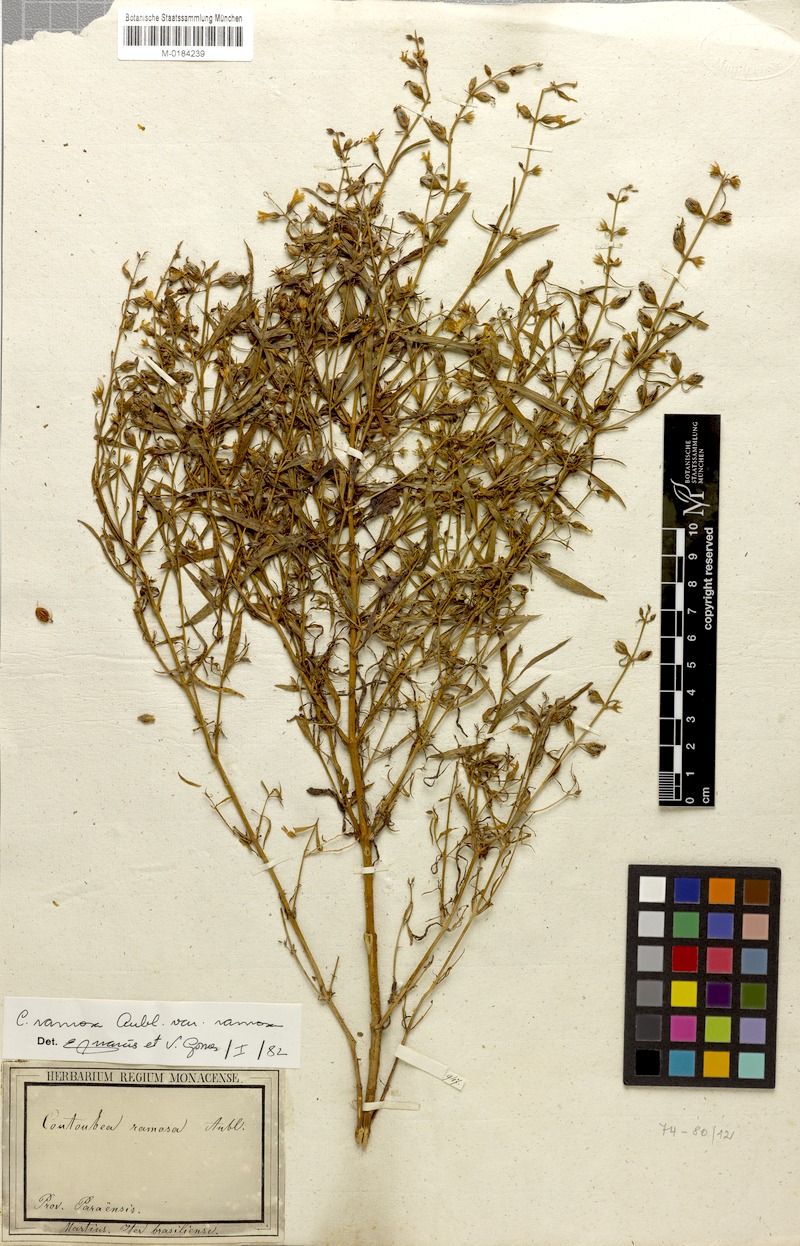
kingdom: Plantae
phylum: Tracheophyta
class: Magnoliopsida
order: Gentianales
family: Gentianaceae
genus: Coutoubea
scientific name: Coutoubea ramosa
